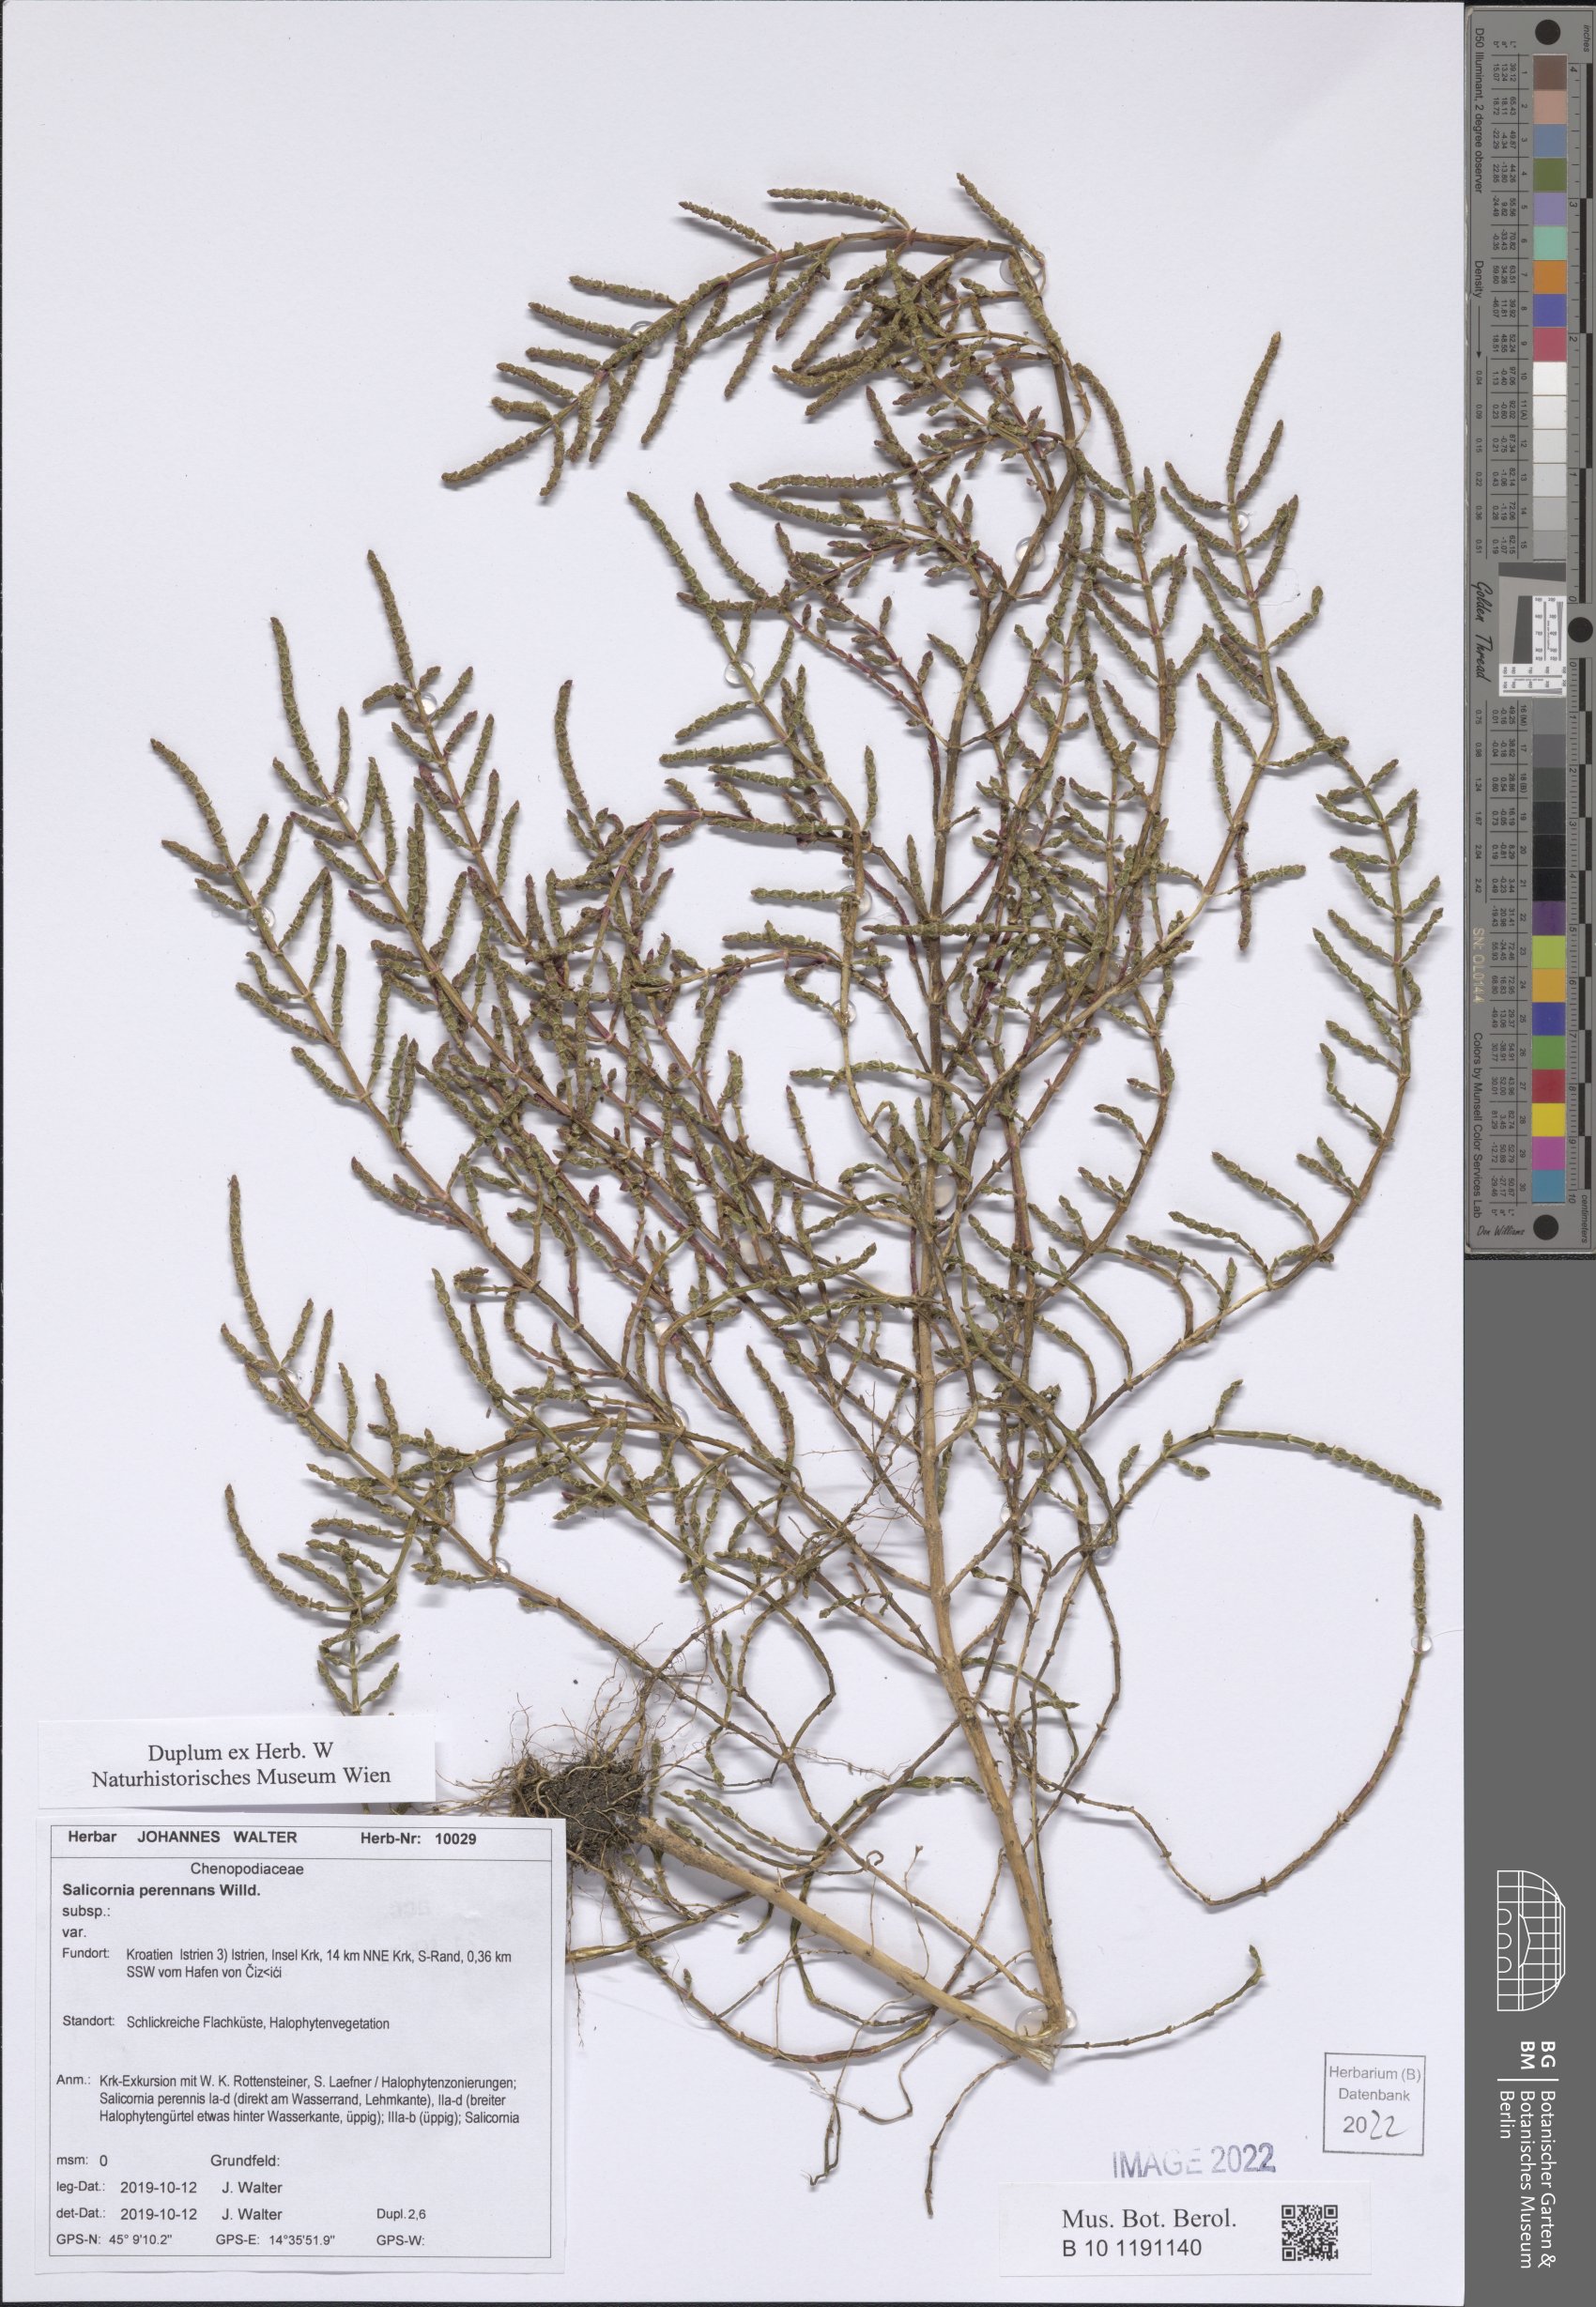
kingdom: Plantae
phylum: Tracheophyta
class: Magnoliopsida
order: Caryophyllales
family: Amaranthaceae
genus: Salicornia
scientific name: Salicornia perennans
